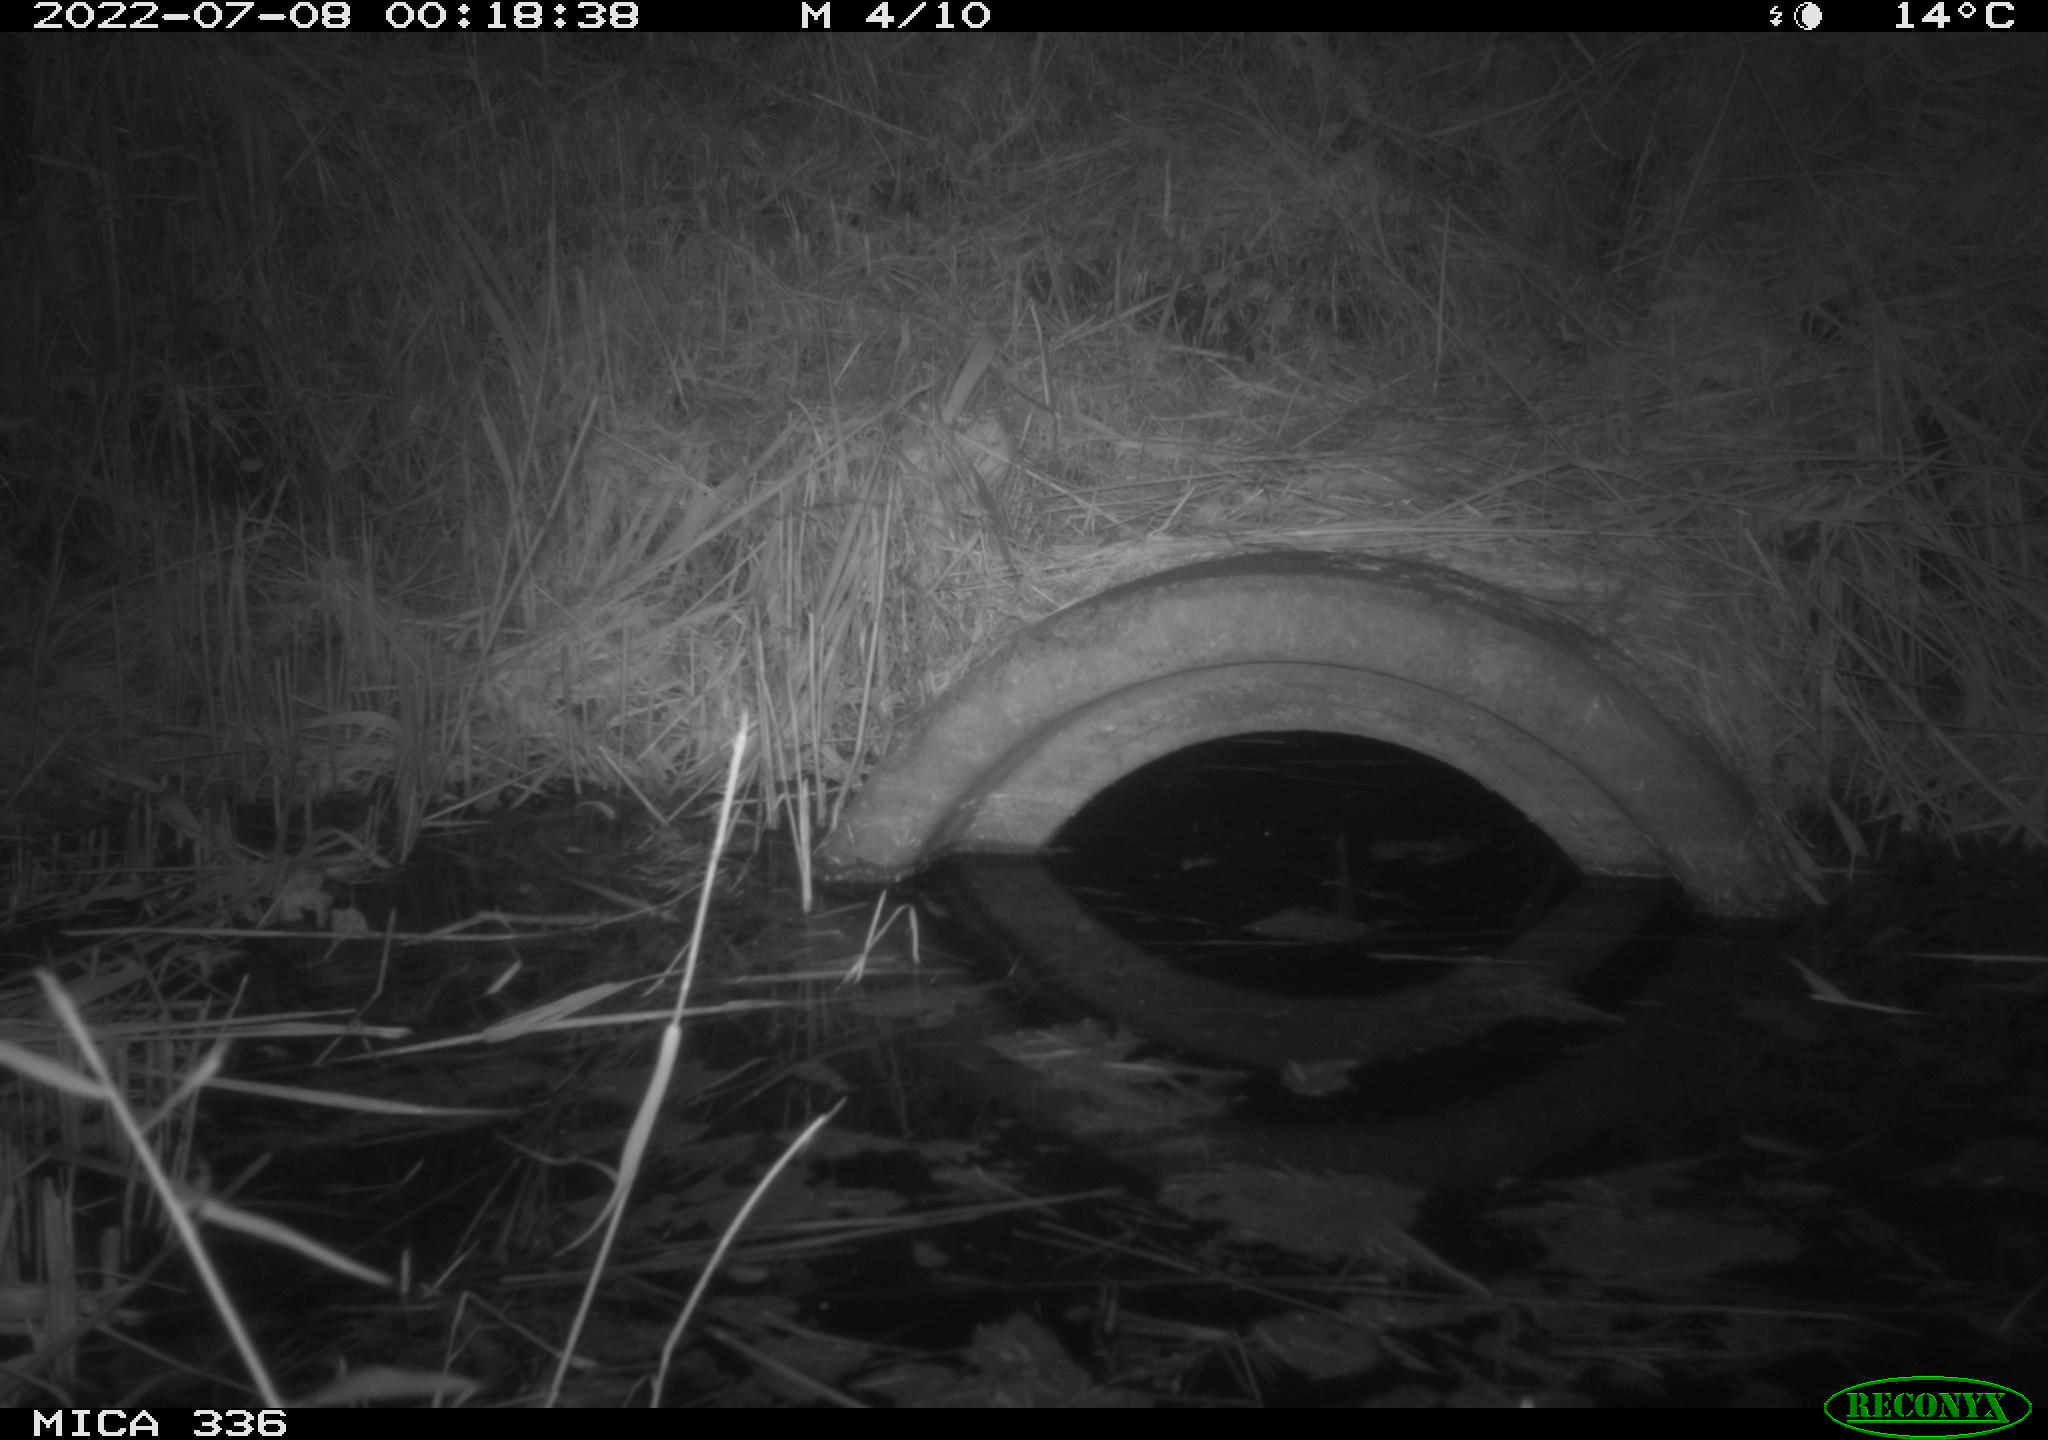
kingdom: Animalia
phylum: Chordata
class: Mammalia
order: Rodentia
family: Muridae
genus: Rattus
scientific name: Rattus norvegicus
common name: Brown rat
